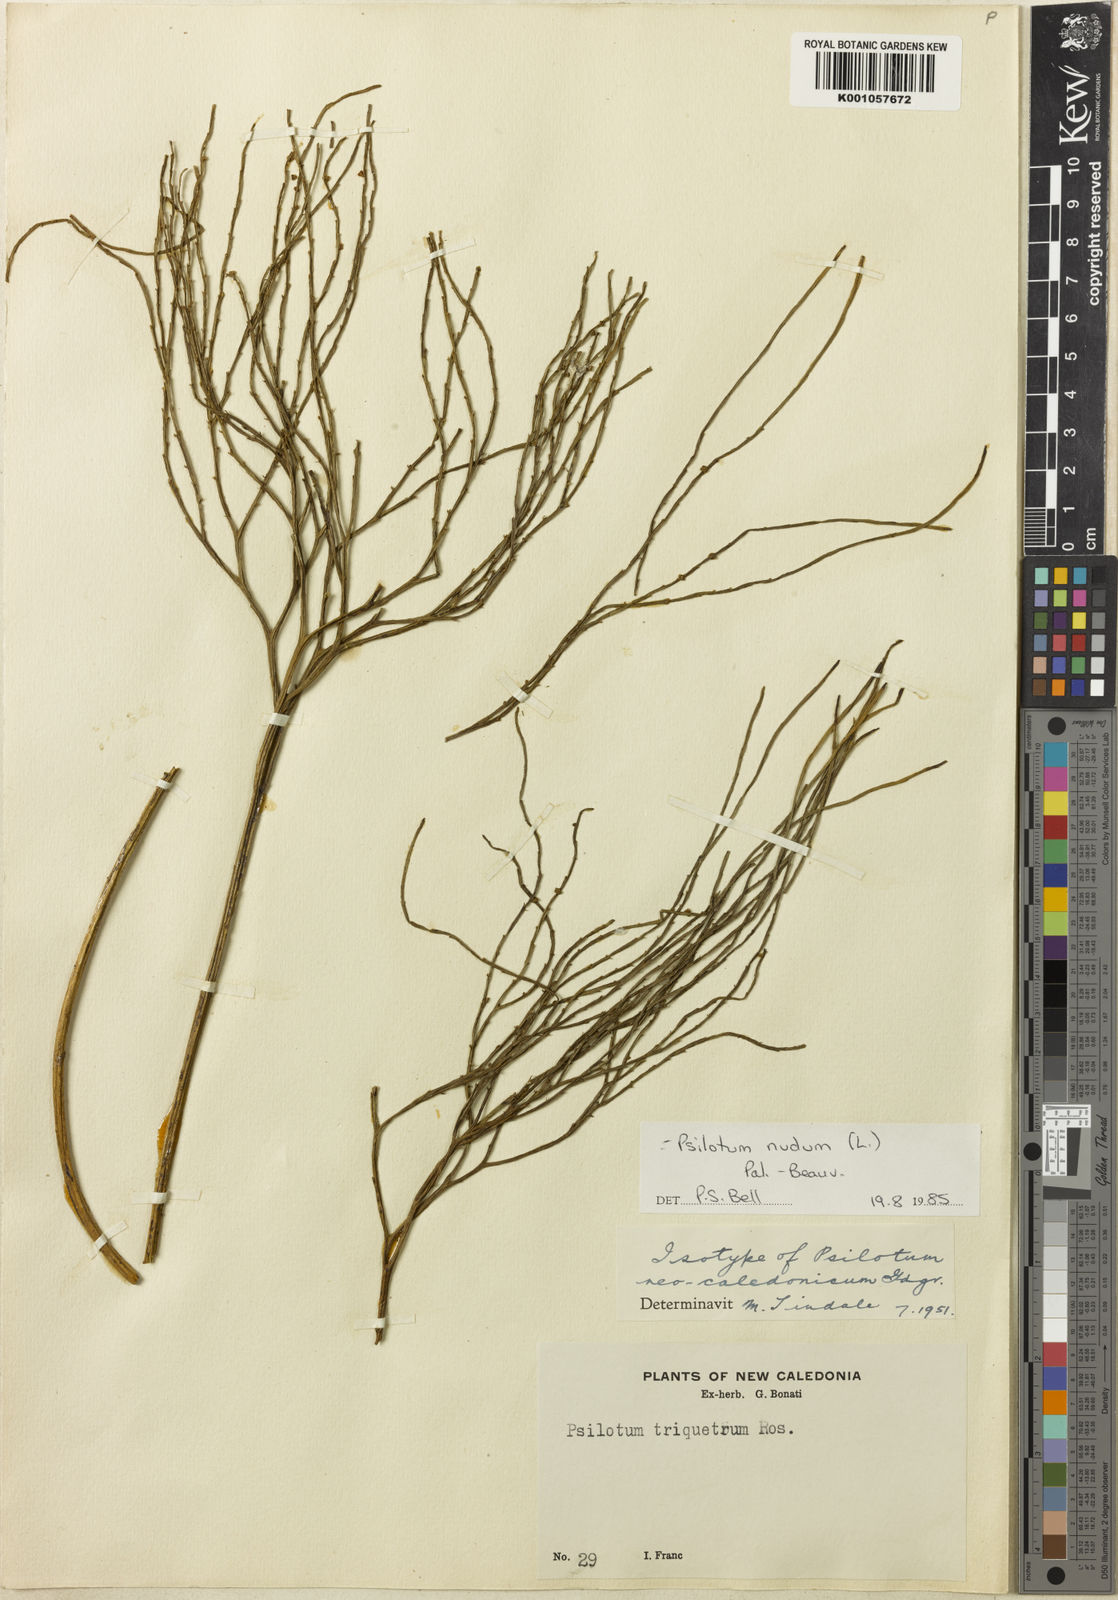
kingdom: Plantae
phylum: Tracheophyta
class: Polypodiopsida
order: Psilotales
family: Psilotaceae
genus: Psilotum
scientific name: Psilotum nudum
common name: Skeleton fork fern
